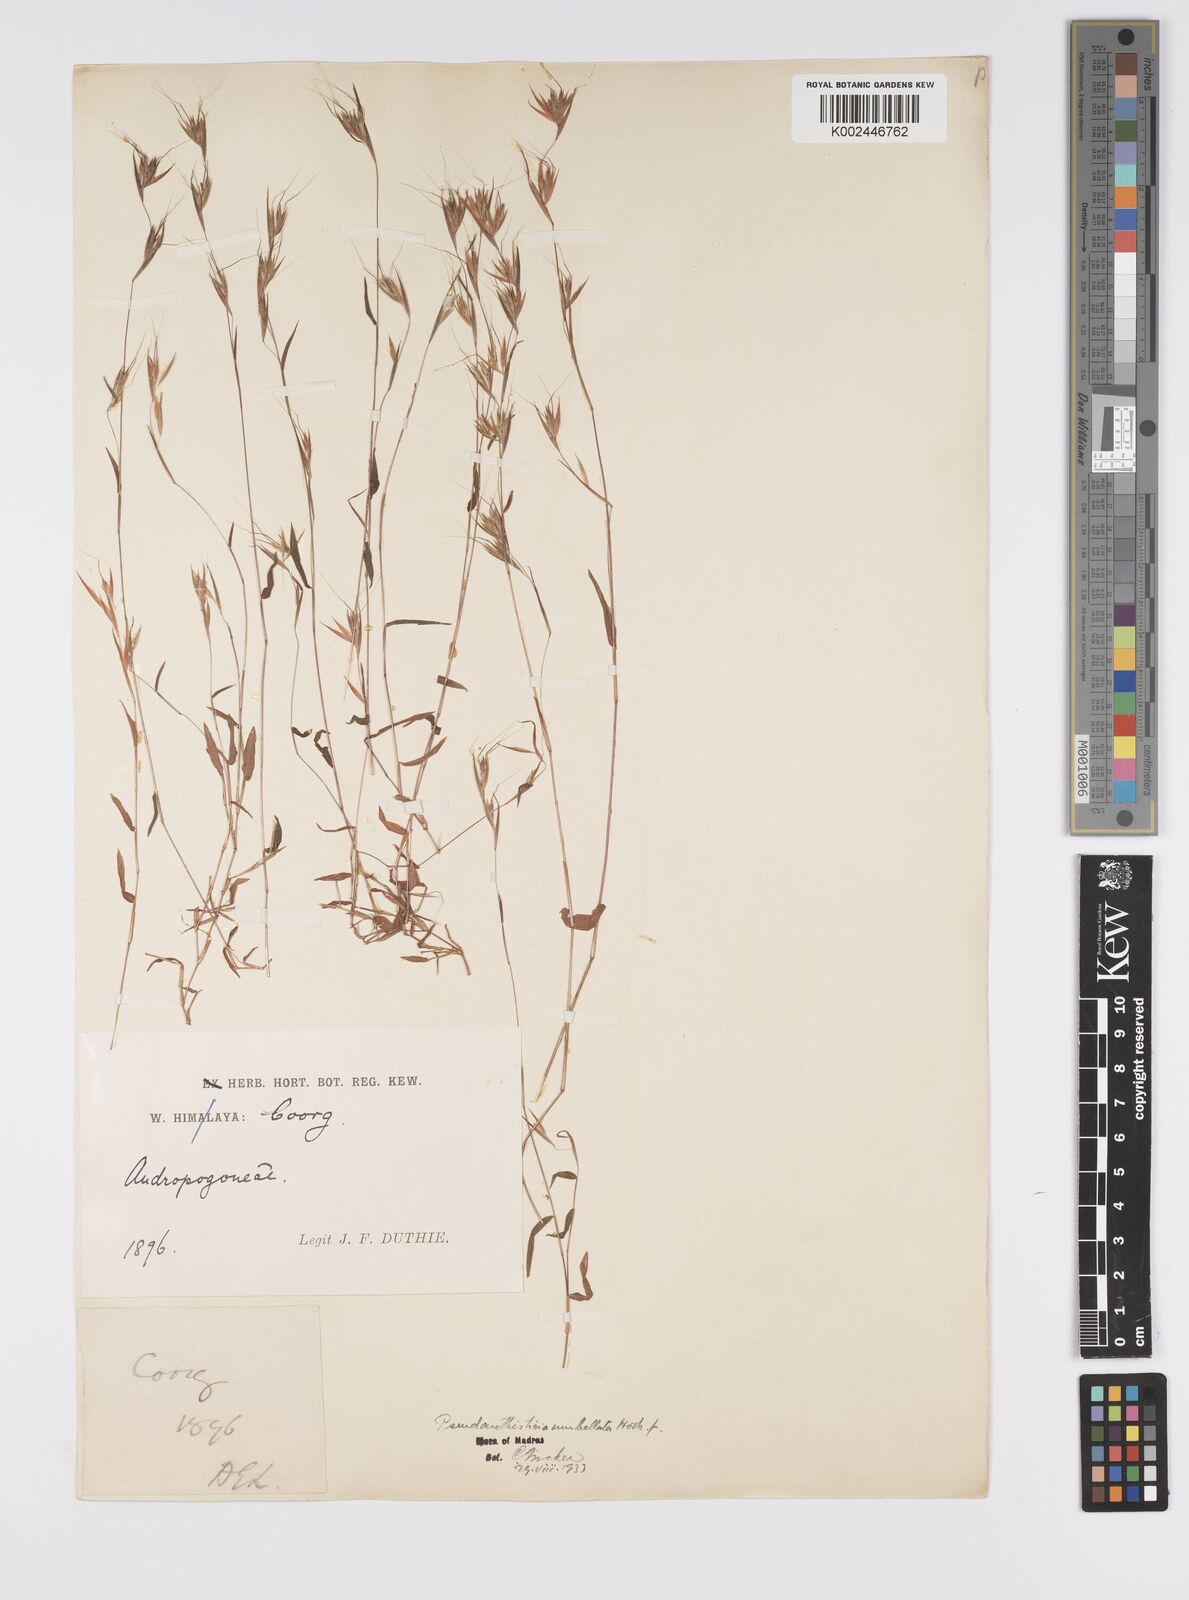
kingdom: Plantae
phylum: Tracheophyta
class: Liliopsida
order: Poales
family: Poaceae
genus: Pseudanthistiria
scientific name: Pseudanthistiria umbellata
